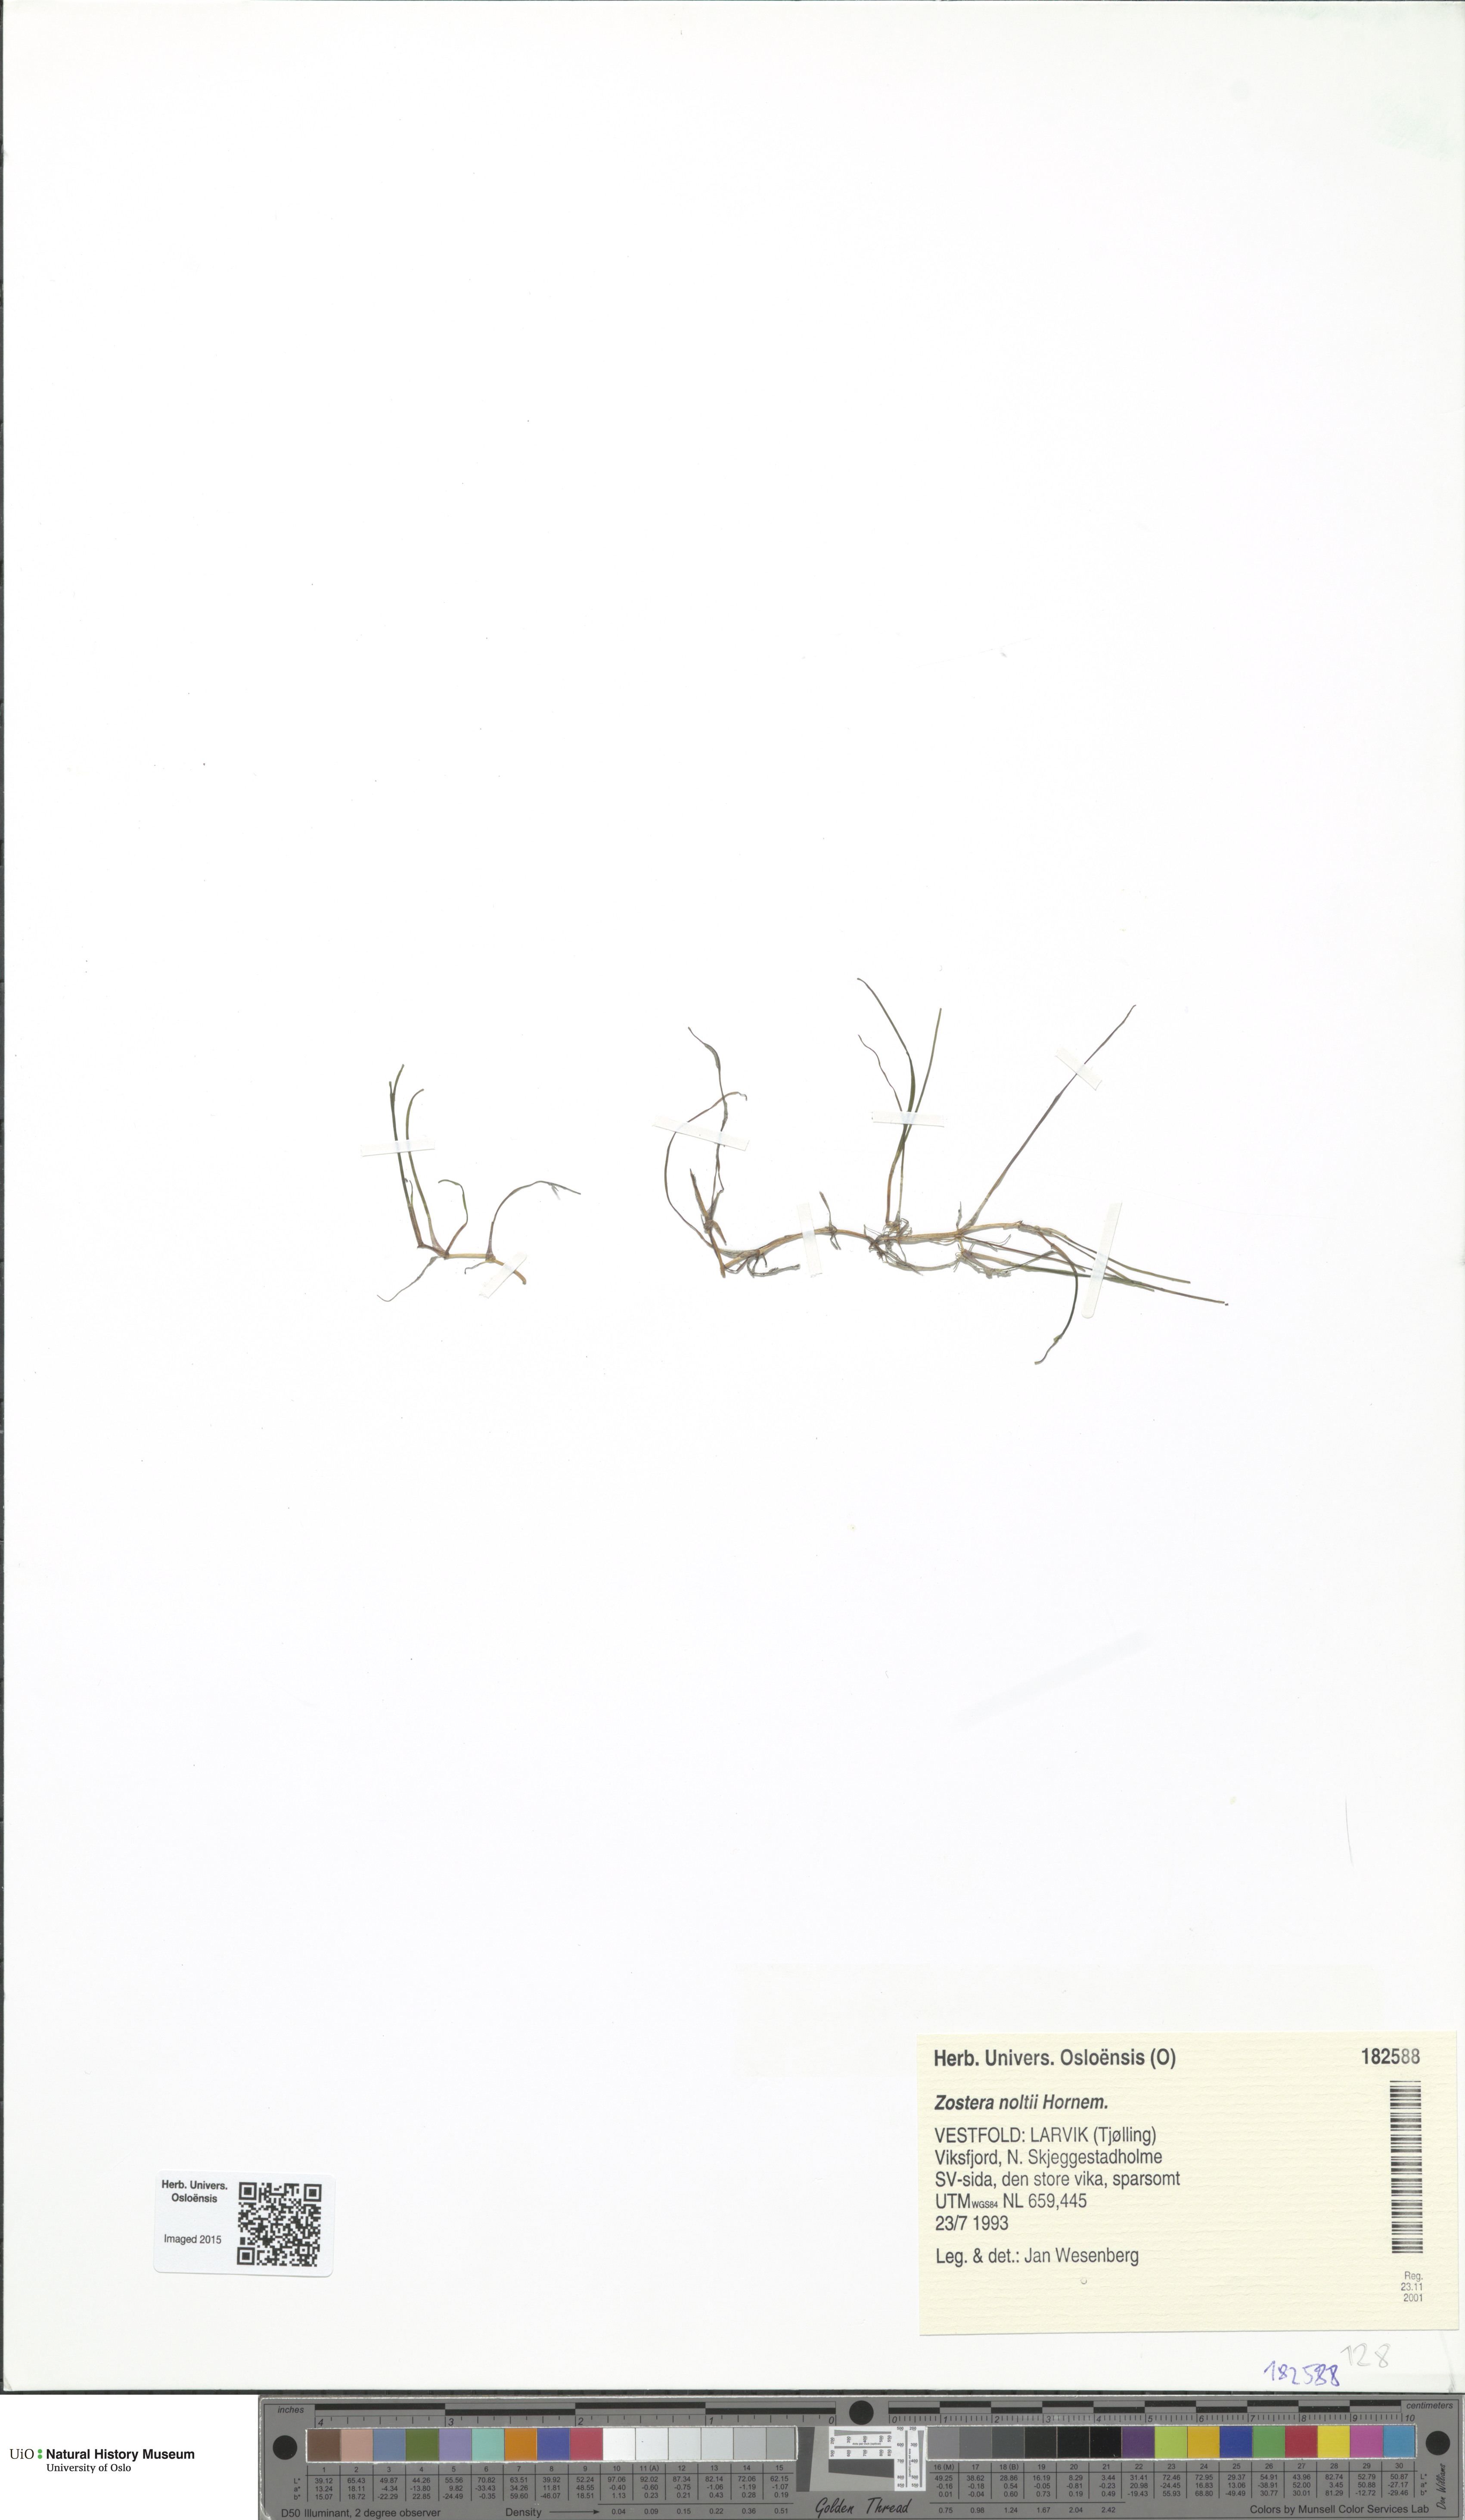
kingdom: Plantae
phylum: Tracheophyta
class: Liliopsida
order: Alismatales
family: Zosteraceae
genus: Zostera
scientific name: Zostera noltii
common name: Dwarf eelgrass
